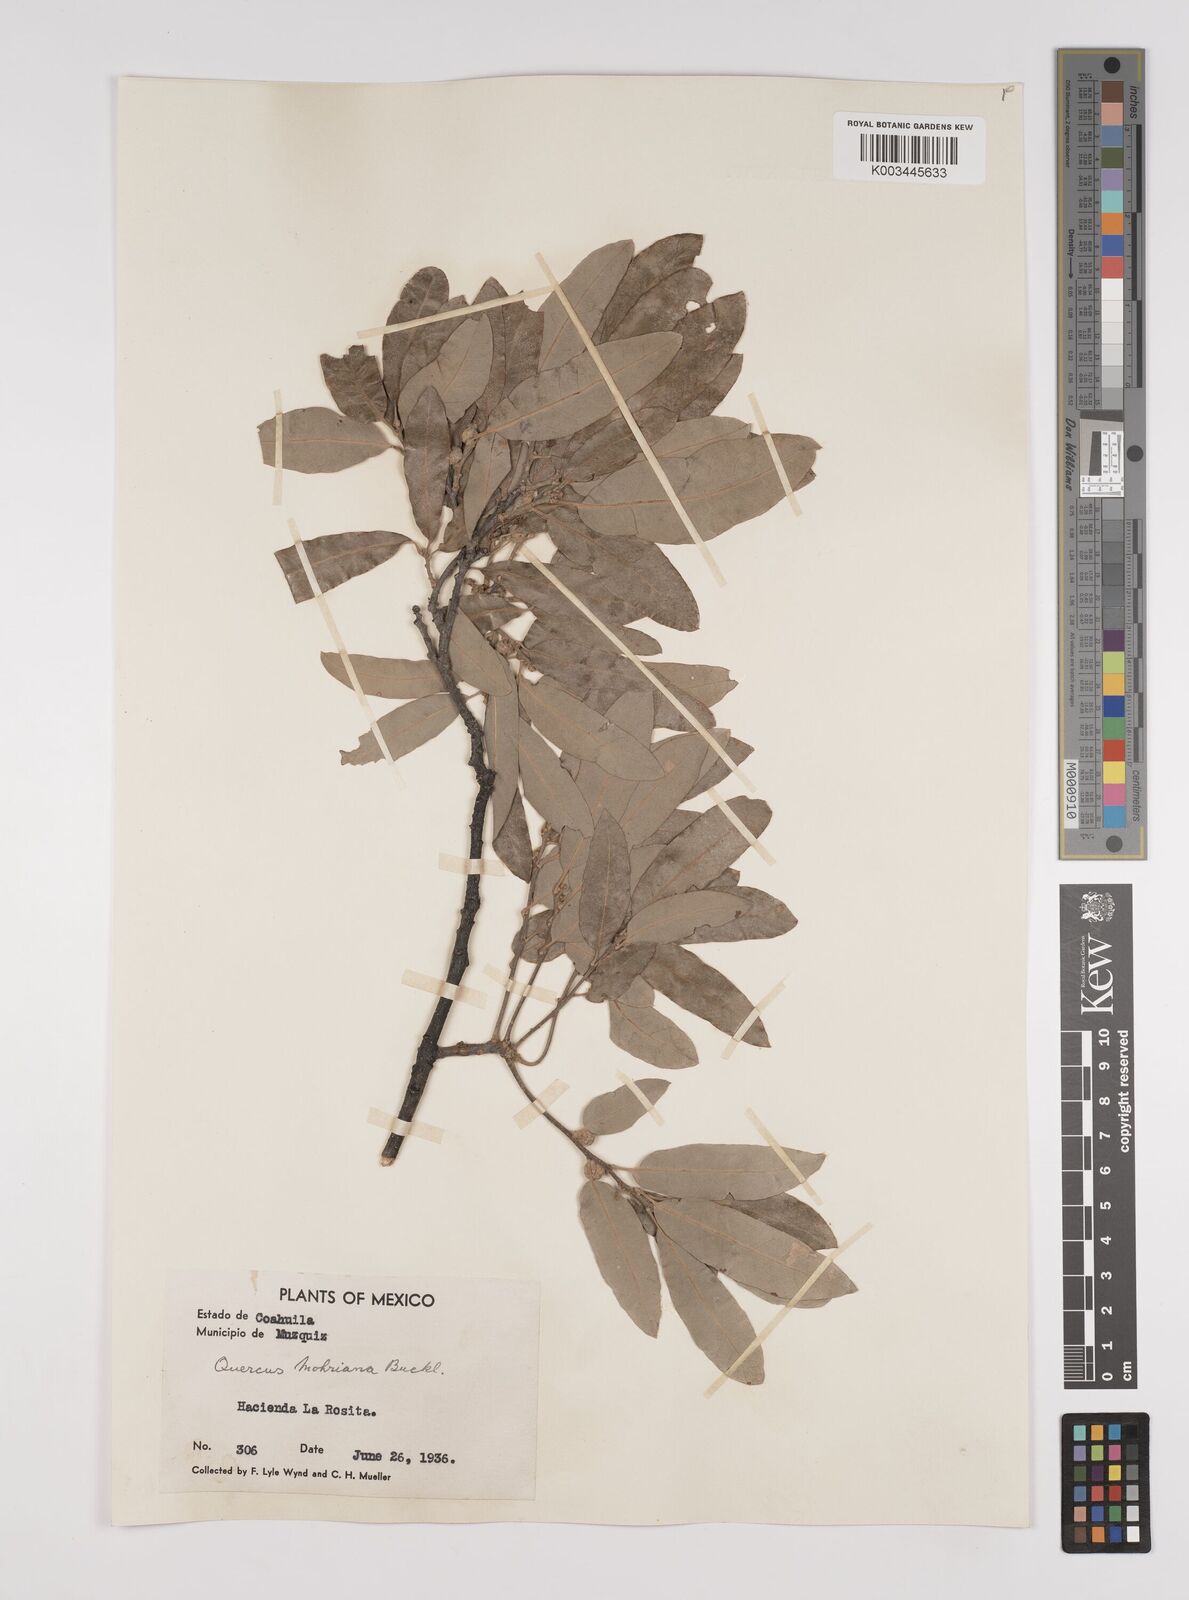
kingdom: Plantae
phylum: Tracheophyta
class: Magnoliopsida
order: Fagales
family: Fagaceae
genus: Quercus
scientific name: Quercus mohriana
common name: Mohr oak
